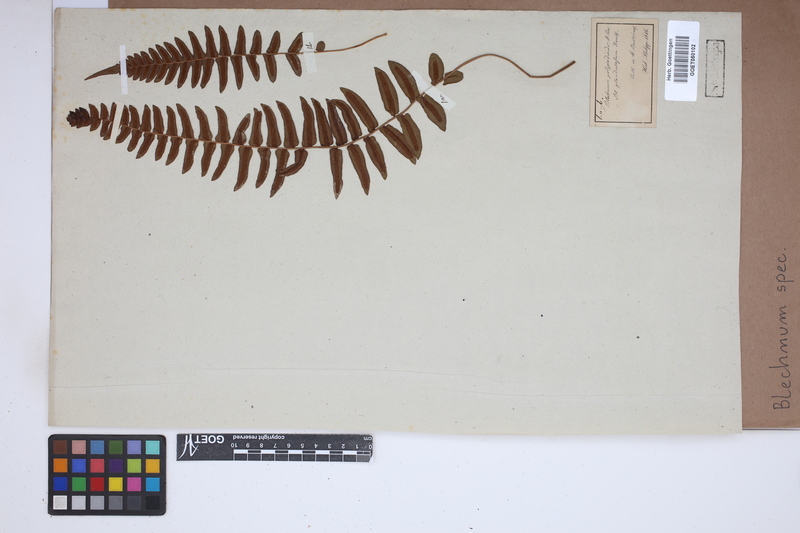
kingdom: Plantae
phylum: Tracheophyta
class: Polypodiopsida
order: Polypodiales
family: Blechnaceae
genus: Blechnum
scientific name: Blechnum
